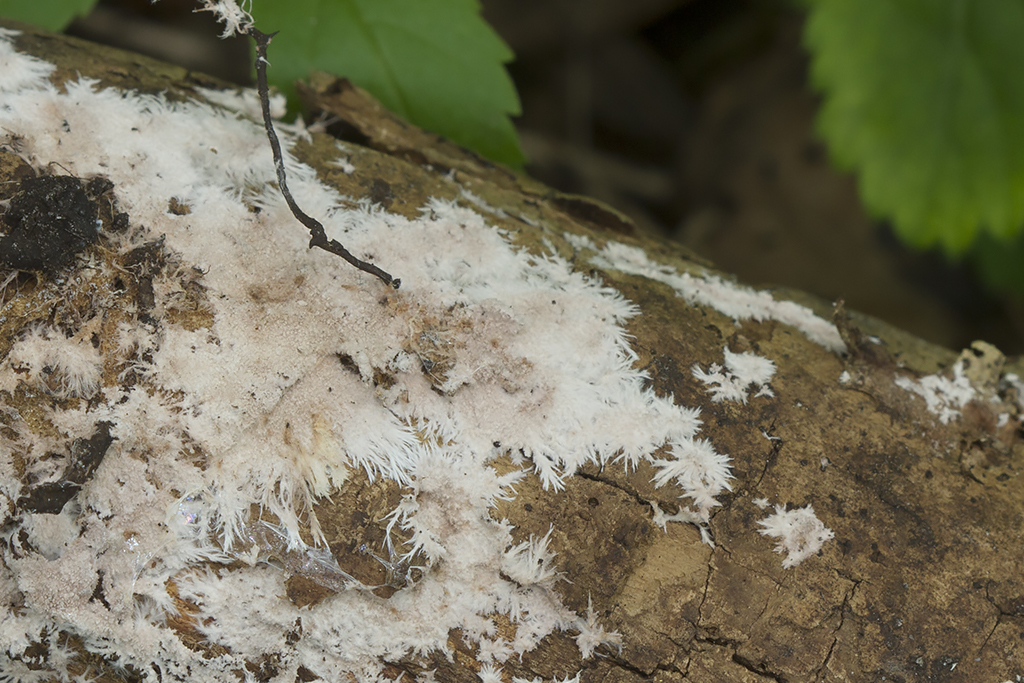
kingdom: Fungi
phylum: Basidiomycota
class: Agaricomycetes
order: Polyporales
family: Steccherinaceae
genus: Steccherinum
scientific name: Steccherinum fimbriatum
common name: trådet skønpig
